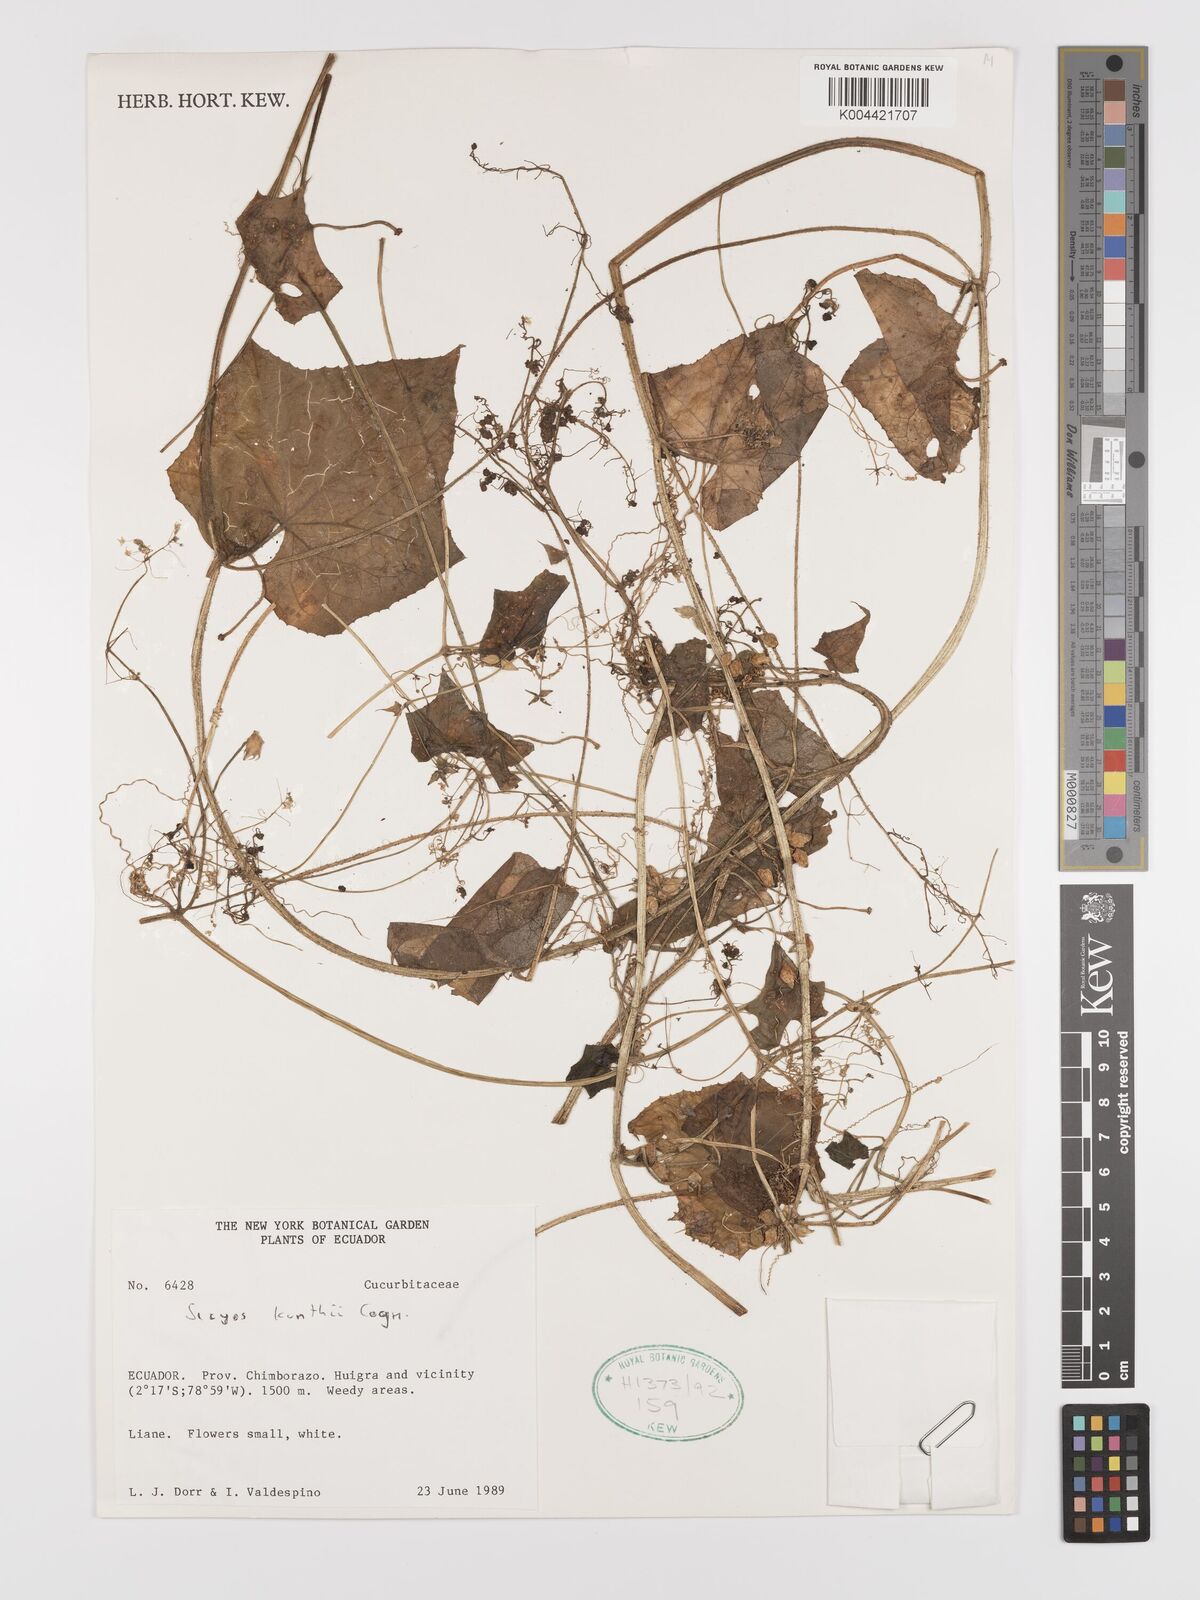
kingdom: Plantae
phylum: Tracheophyta
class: Magnoliopsida
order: Cucurbitales
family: Cucurbitaceae
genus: Sicyos
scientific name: Sicyos kunthii
